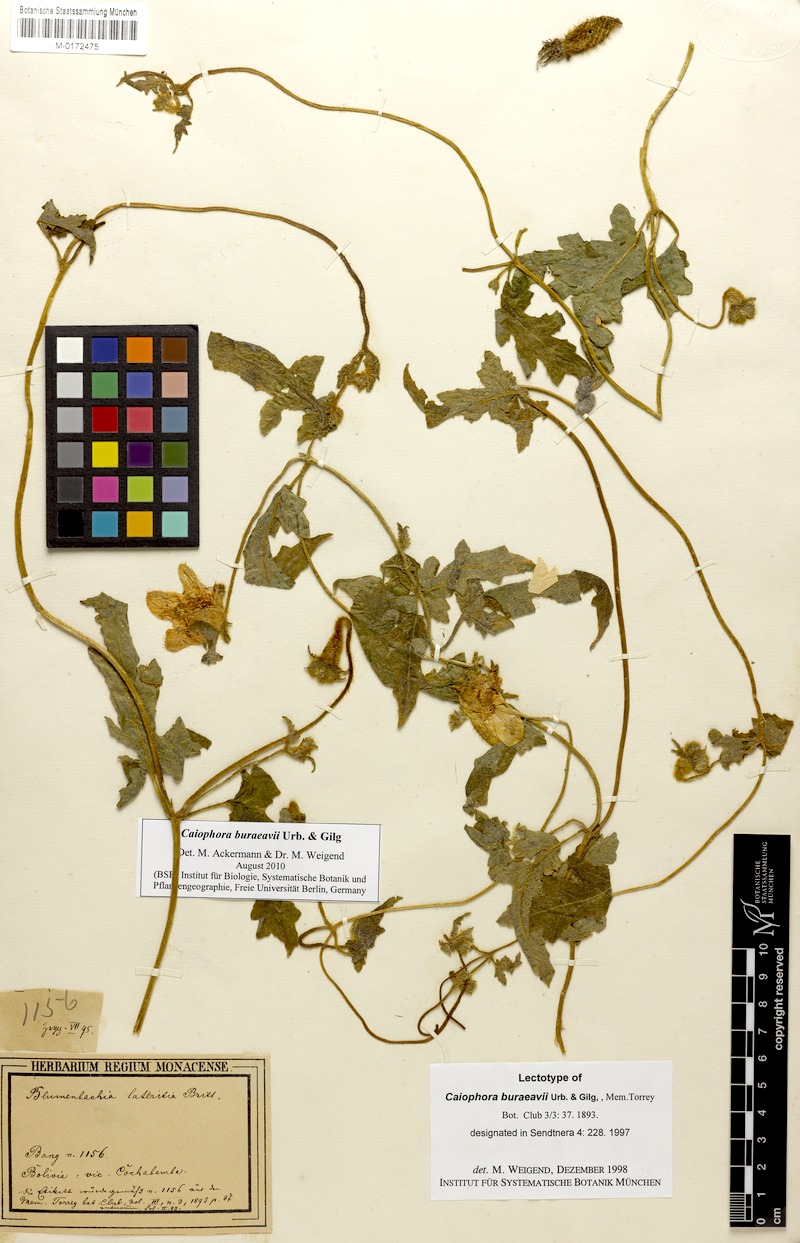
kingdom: Plantae
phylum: Tracheophyta
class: Magnoliopsida
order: Cornales
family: Loasaceae
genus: Caiophora
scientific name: Caiophora buraeavii
